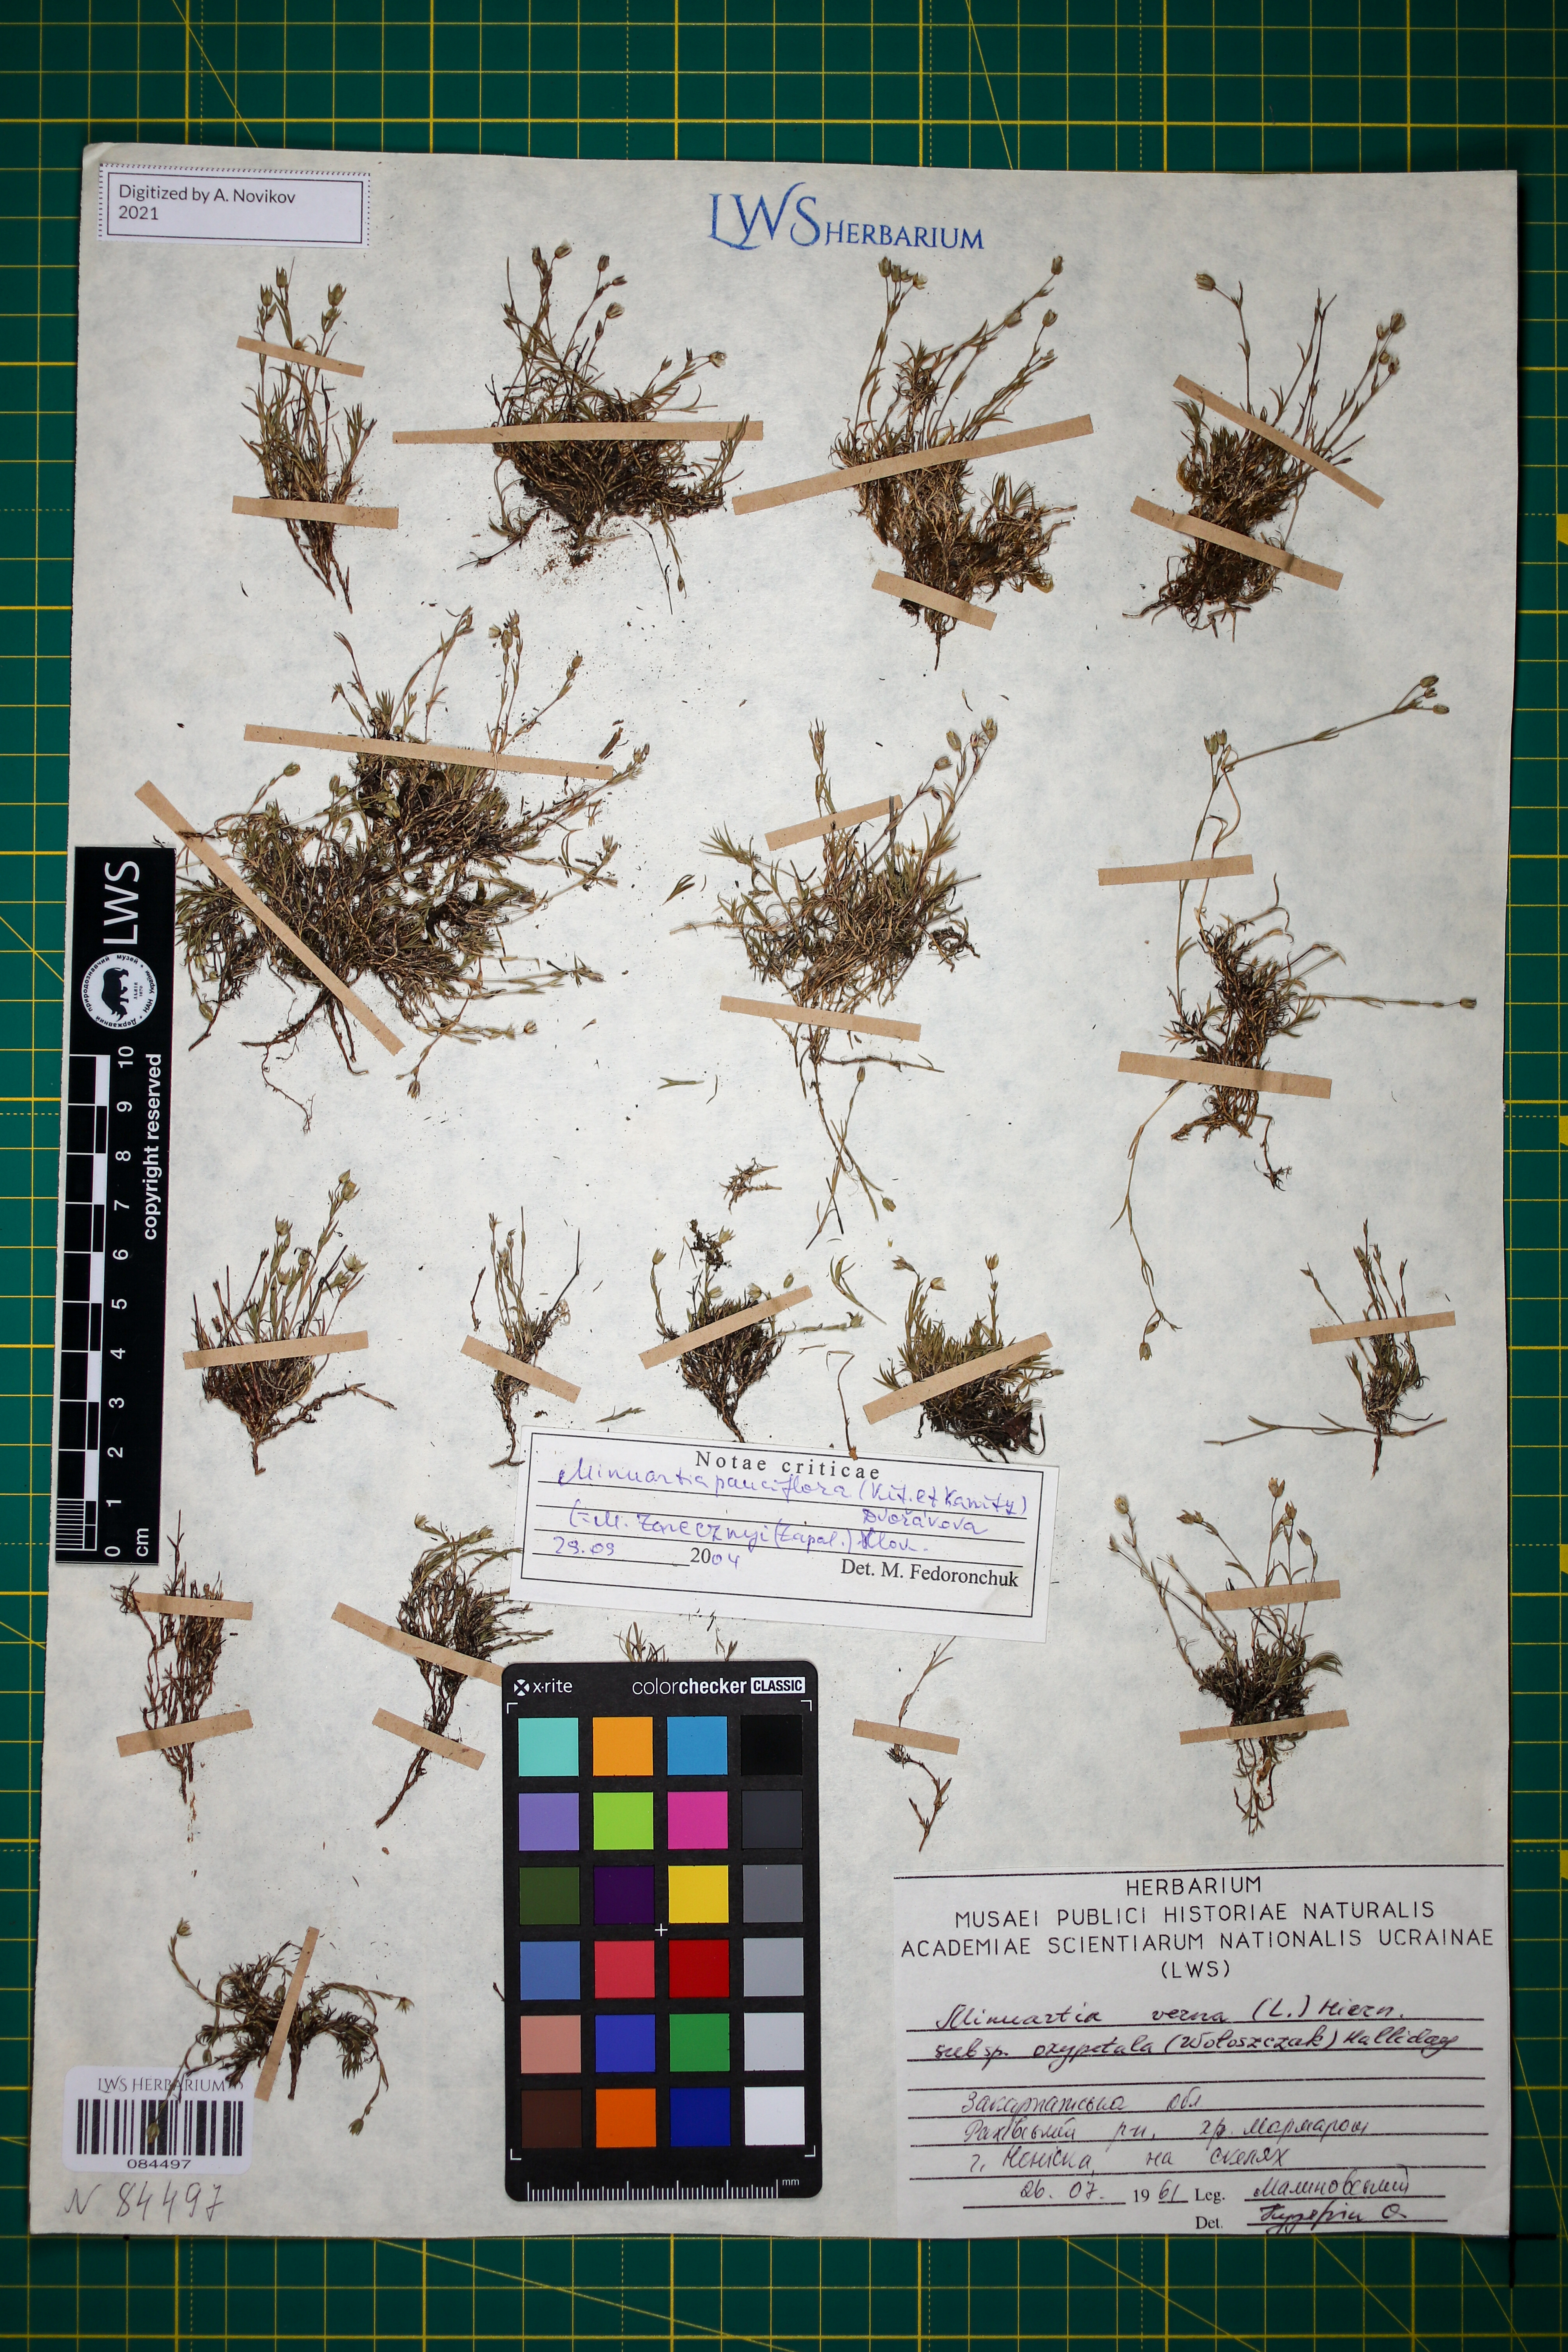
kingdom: Plantae
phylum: Tracheophyta
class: Magnoliopsida
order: Caryophyllales
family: Caryophyllaceae
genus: Minuartia
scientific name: Minuartia pauciflora
